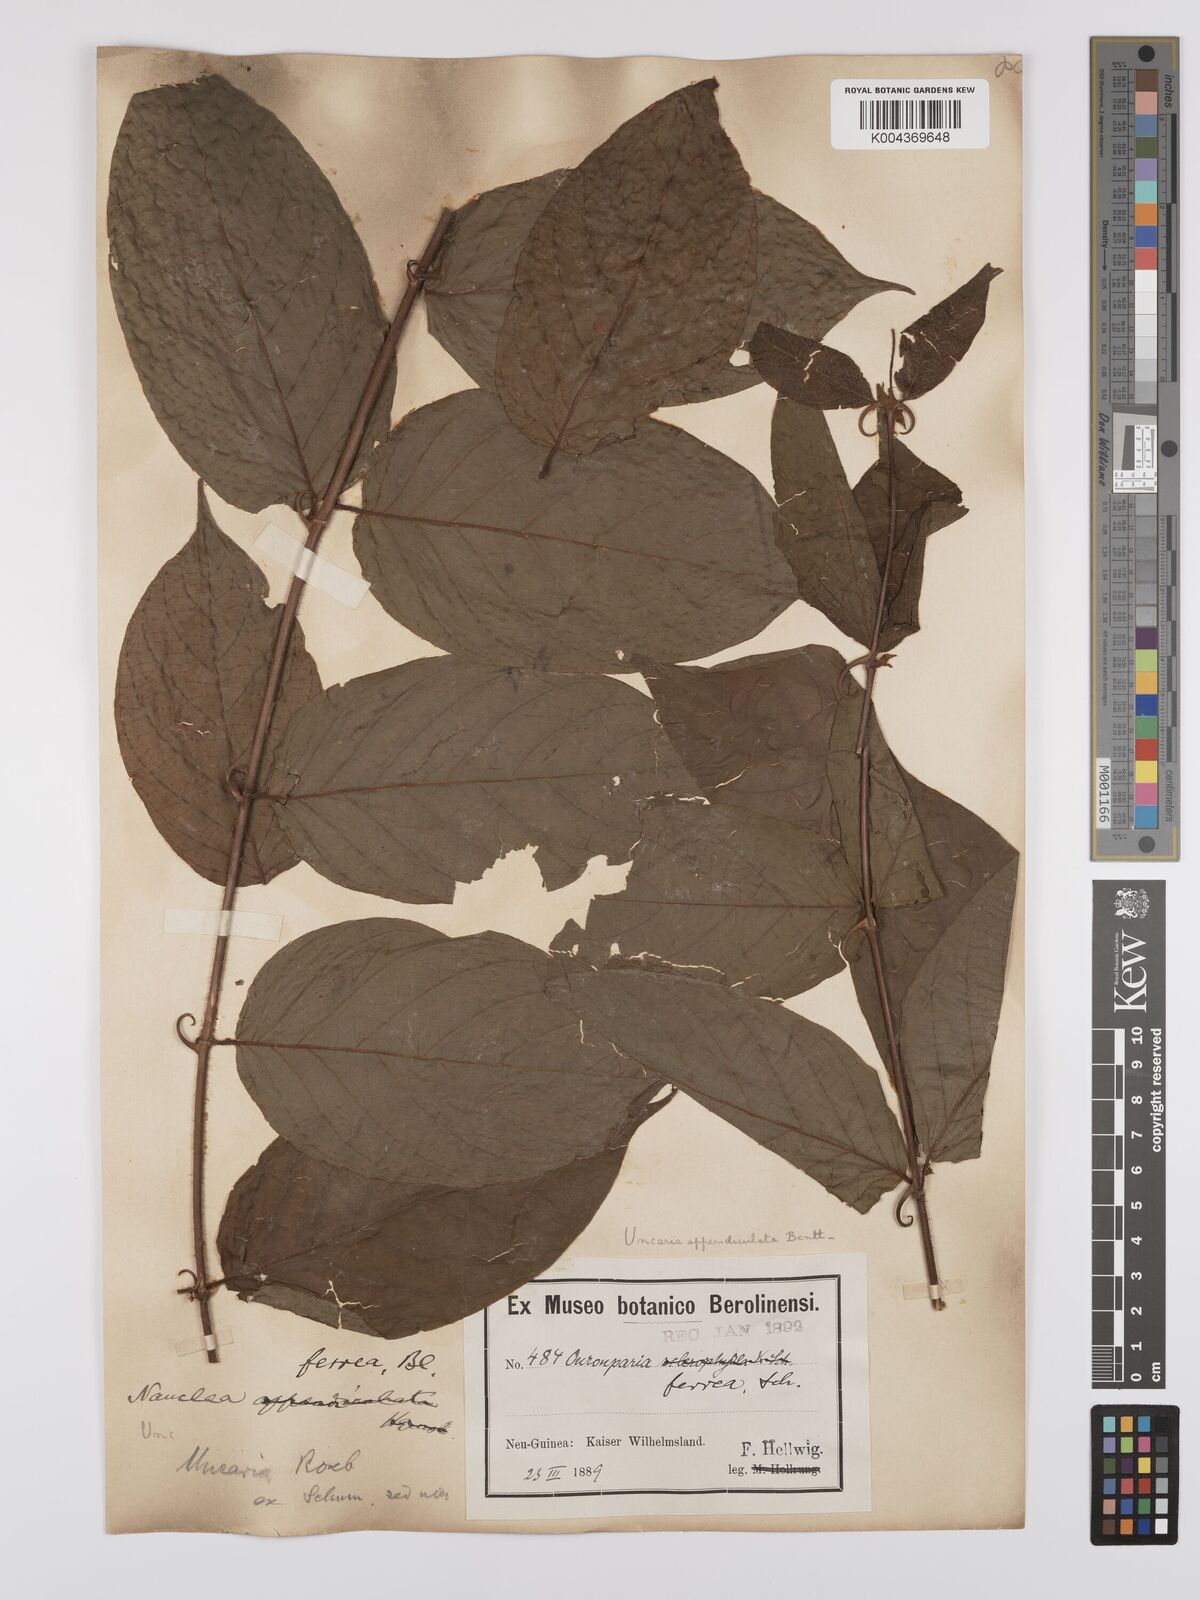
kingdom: Plantae
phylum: Tracheophyta
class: Magnoliopsida
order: Gentianales
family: Rubiaceae
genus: Uncaria
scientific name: Uncaria lanosa
